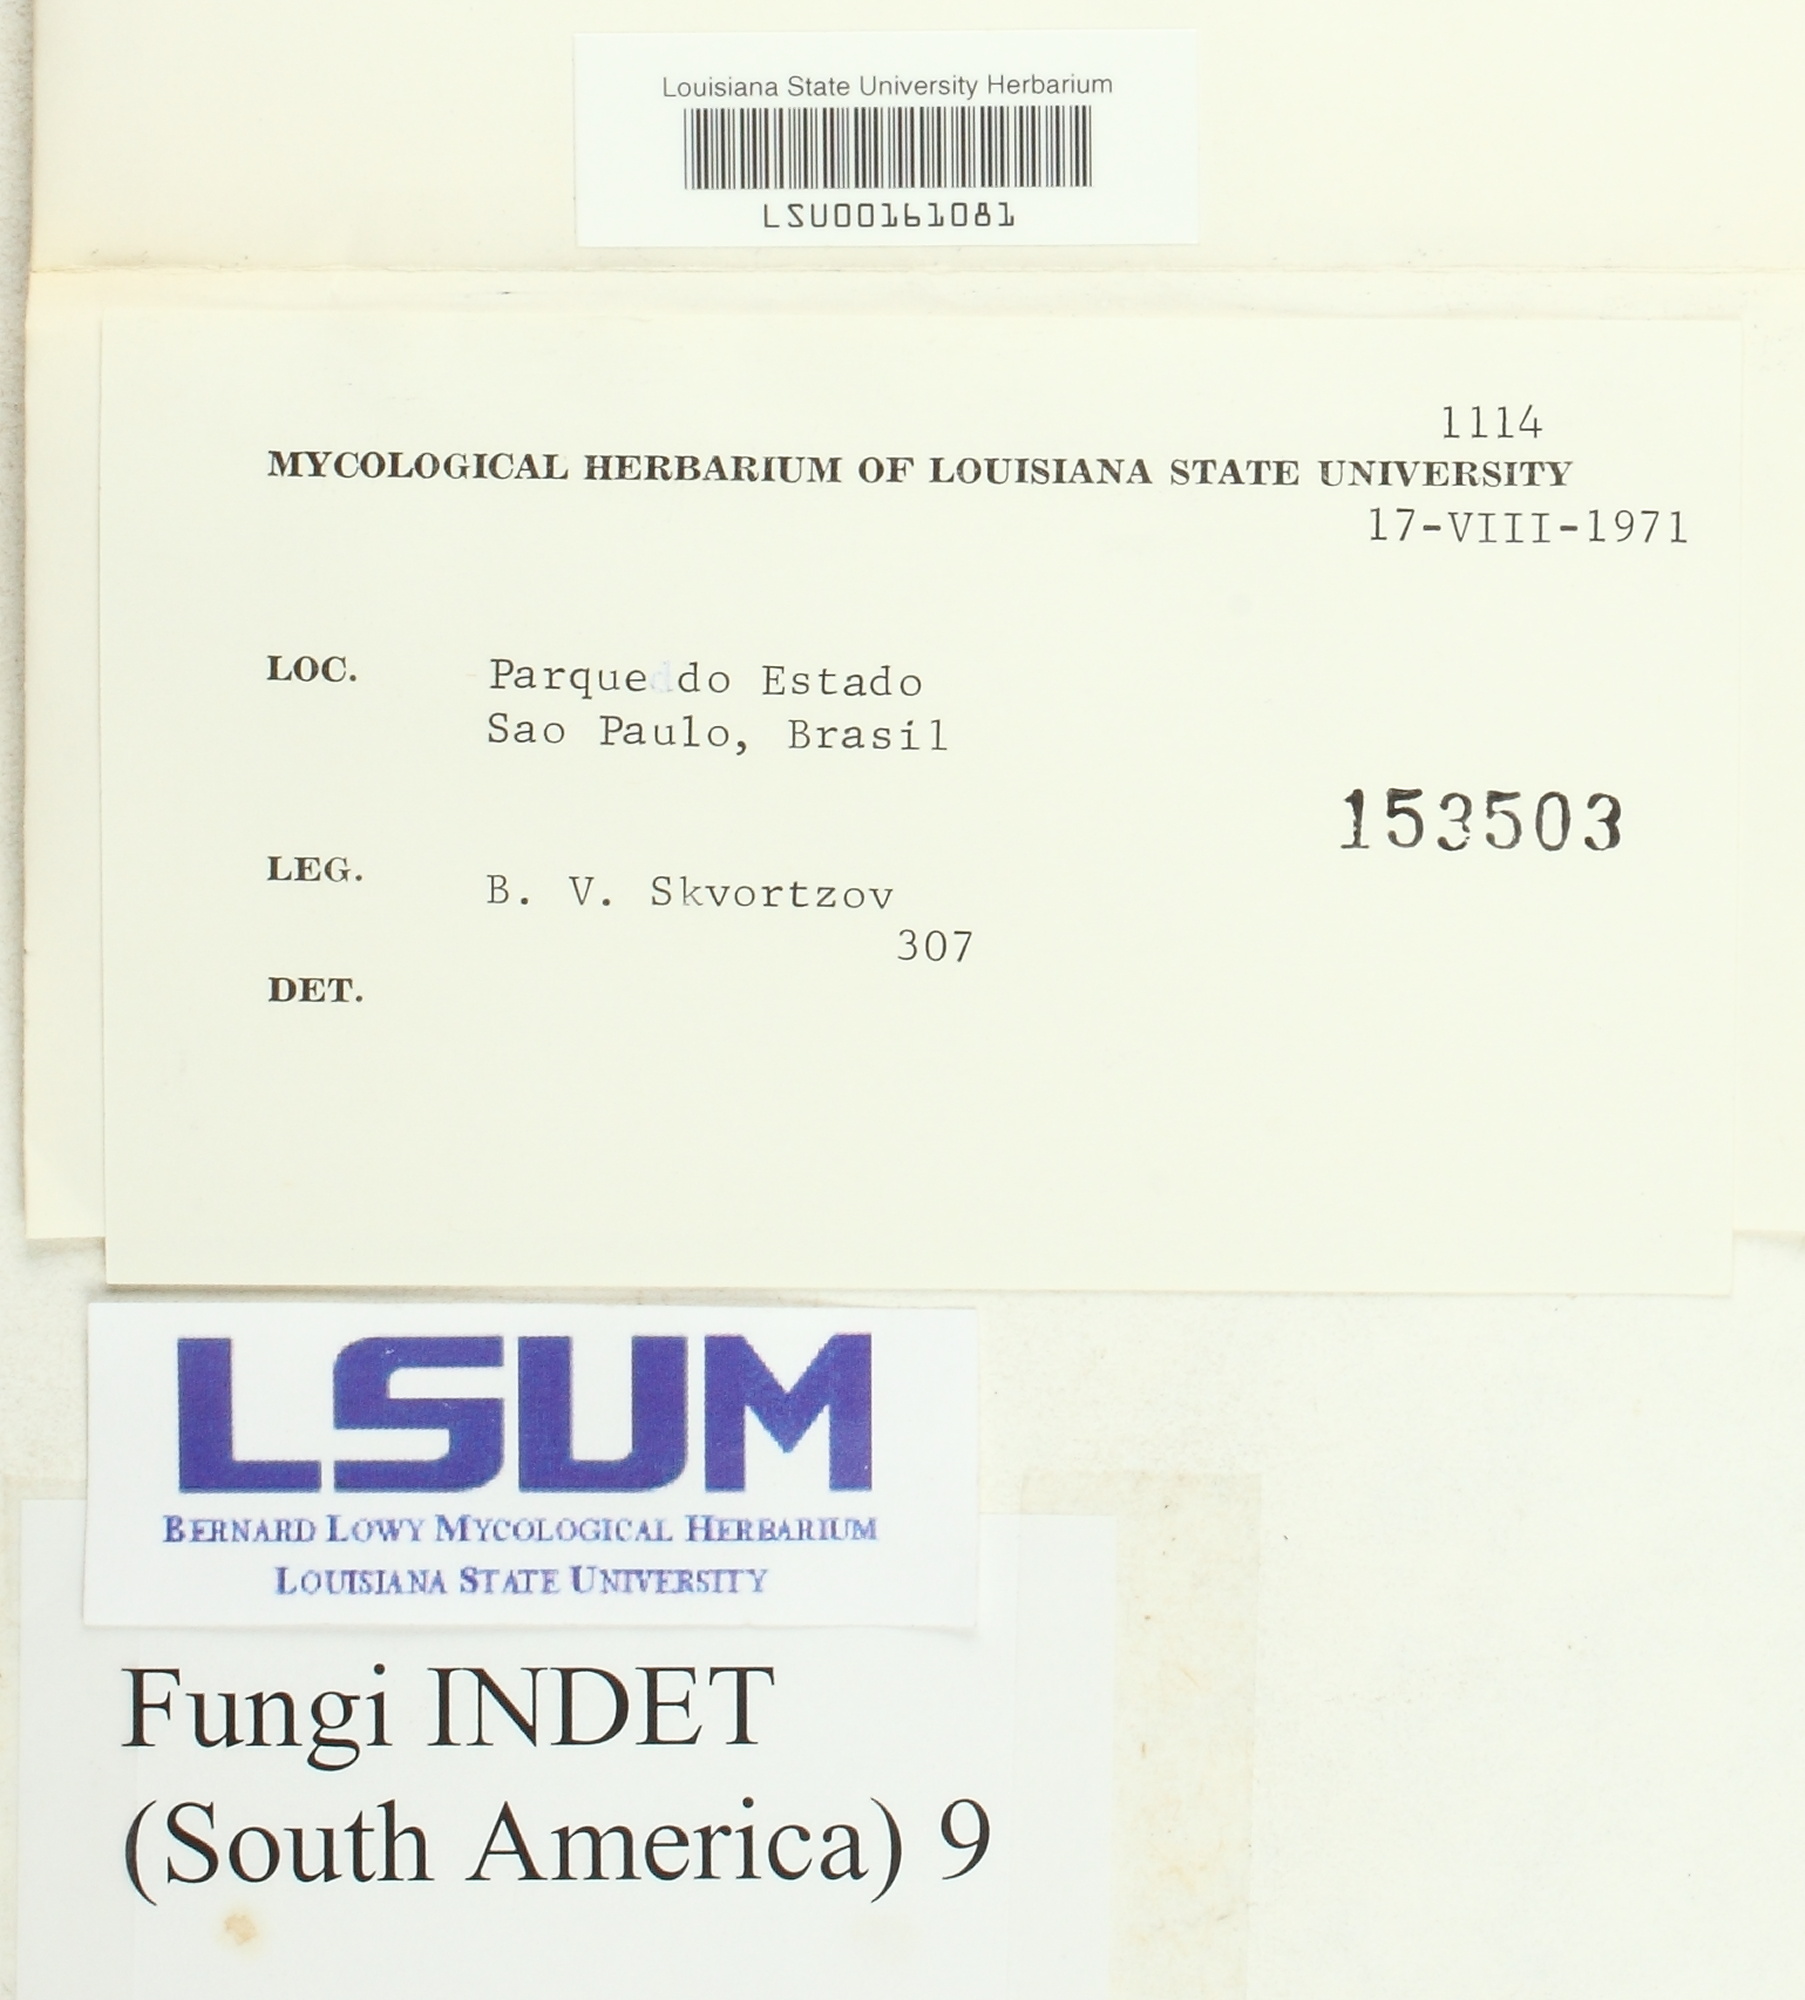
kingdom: Fungi
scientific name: Fungi
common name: Fungi
